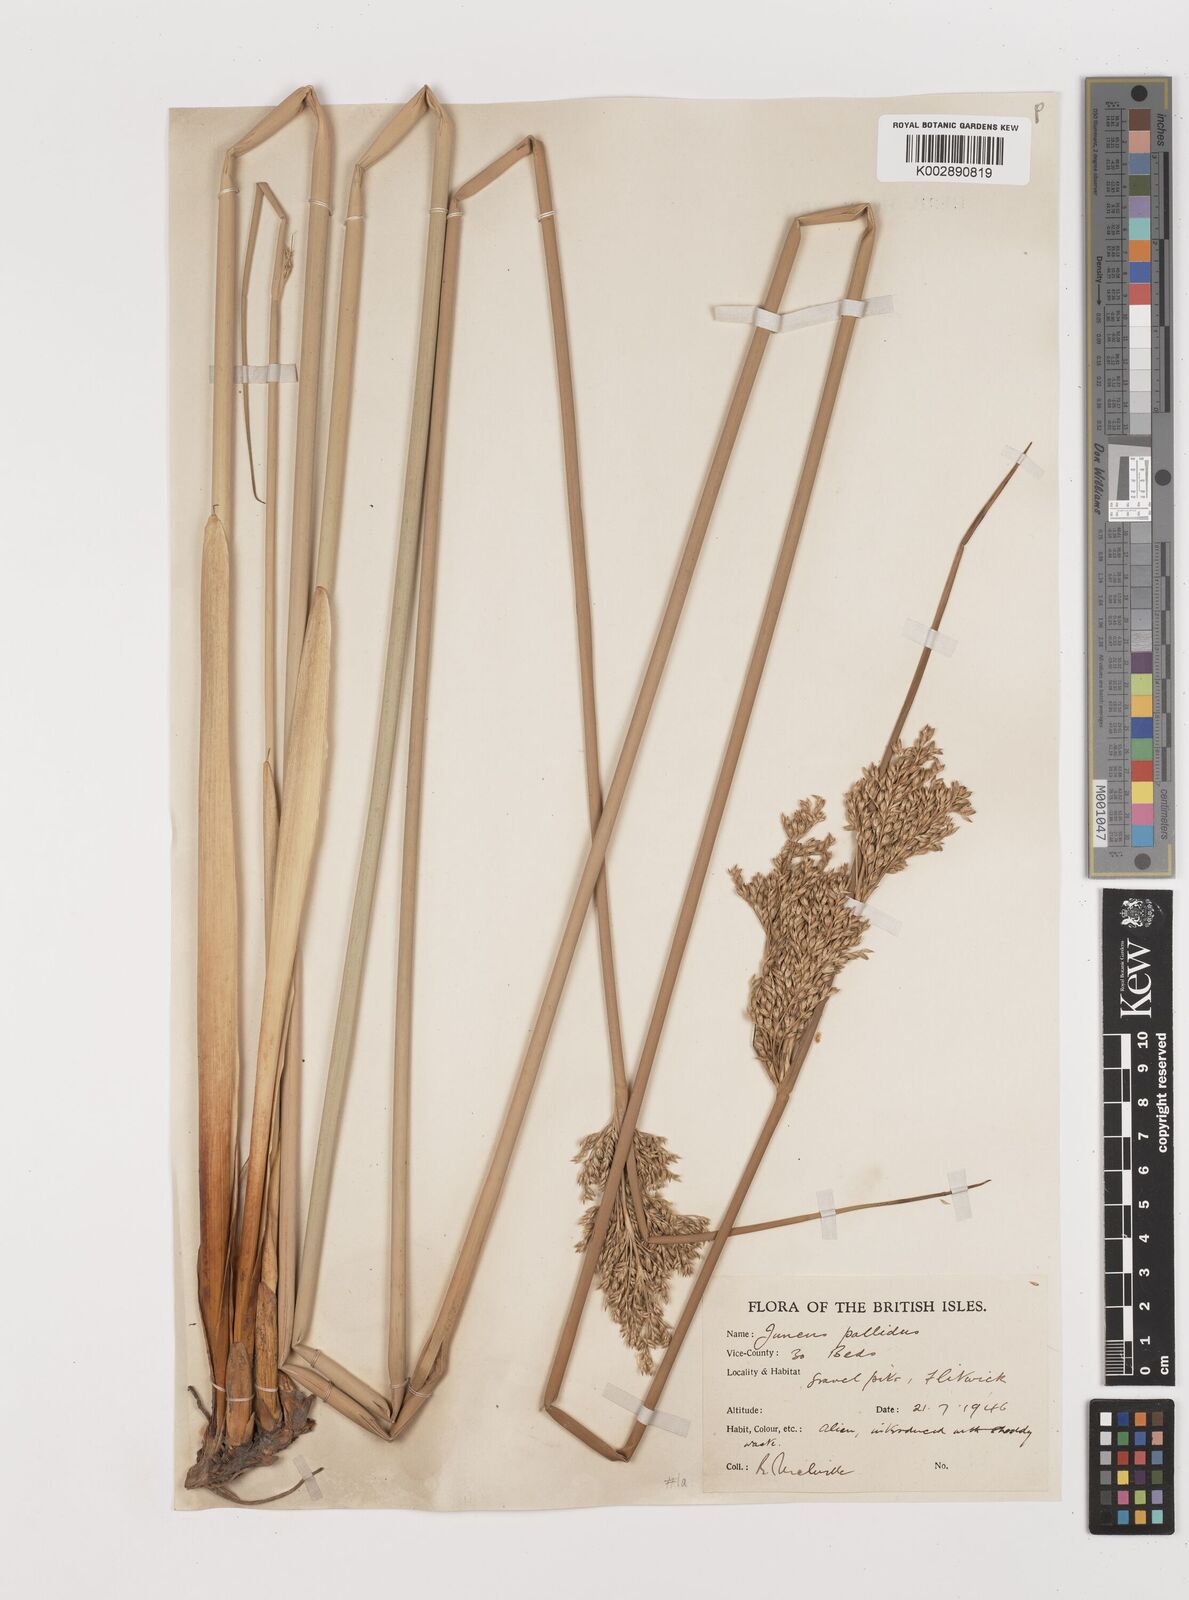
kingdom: Plantae
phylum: Tracheophyta
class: Liliopsida
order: Poales
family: Juncaceae
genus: Juncus
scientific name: Juncus pallidus
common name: Great soft-rush
